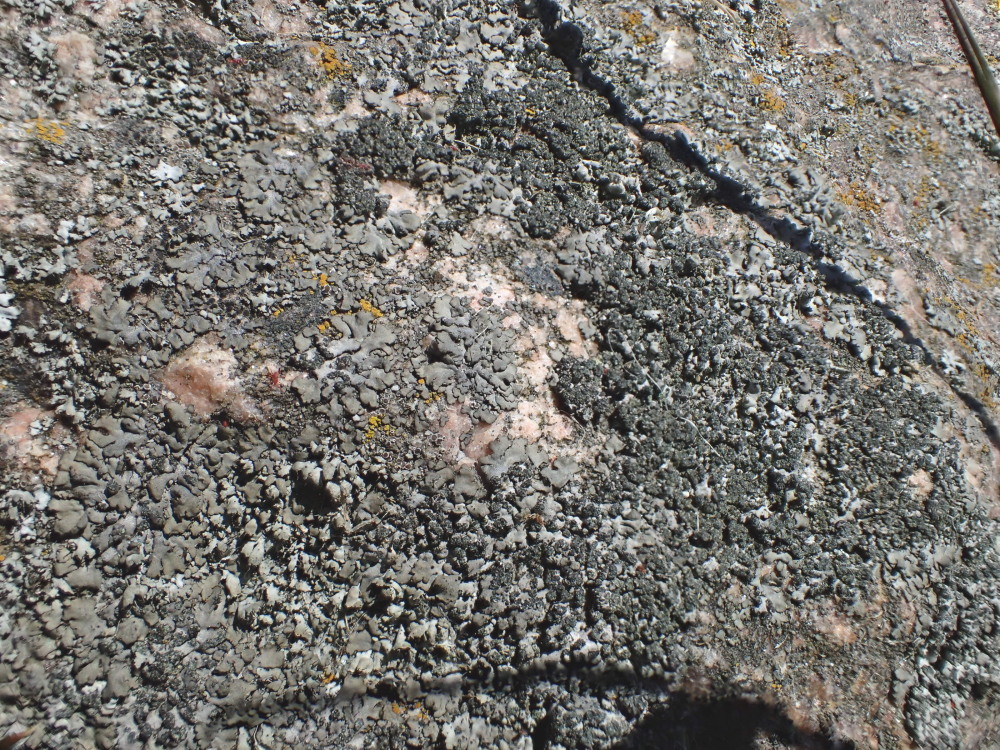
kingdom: Fungi
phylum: Ascomycota
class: Lecanoromycetes
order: Caliciales
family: Physciaceae
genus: Phaeophyscia
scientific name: Phaeophyscia orbicularis
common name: grågrøn rosetlav
